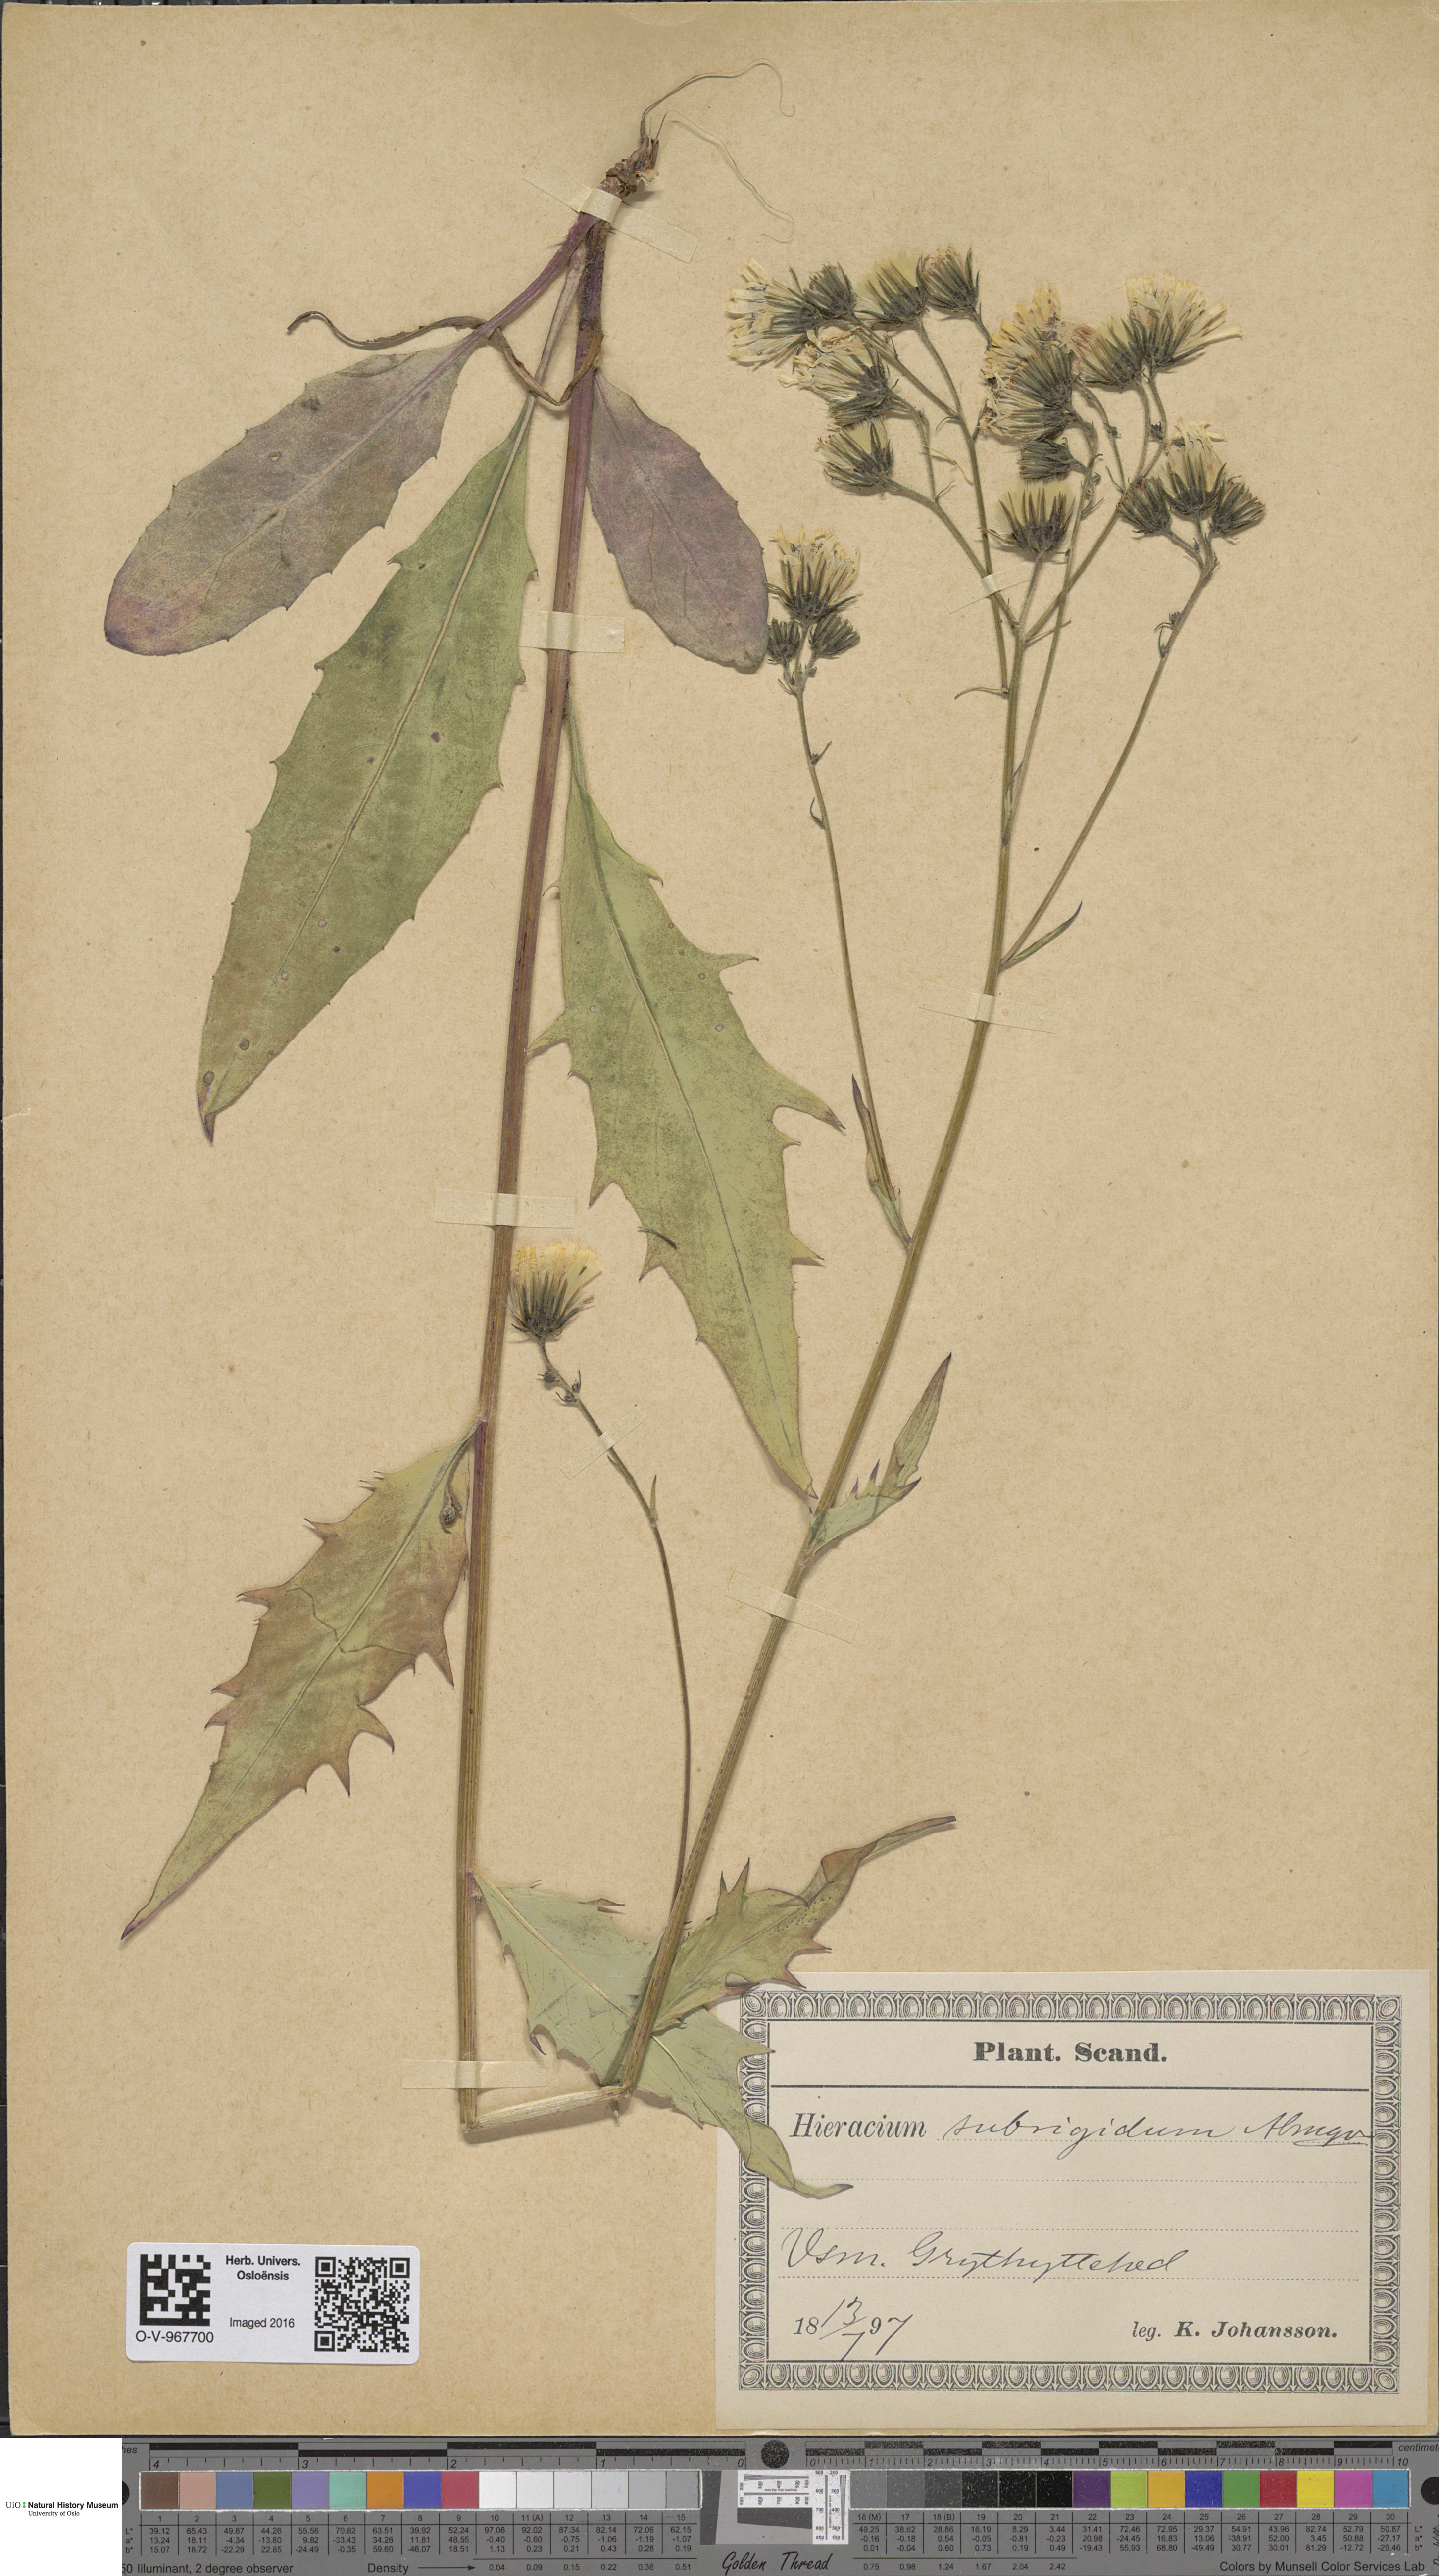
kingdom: Plantae
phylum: Tracheophyta
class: Magnoliopsida
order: Asterales
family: Asteraceae
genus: Hieracium
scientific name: Hieracium subrigidum
